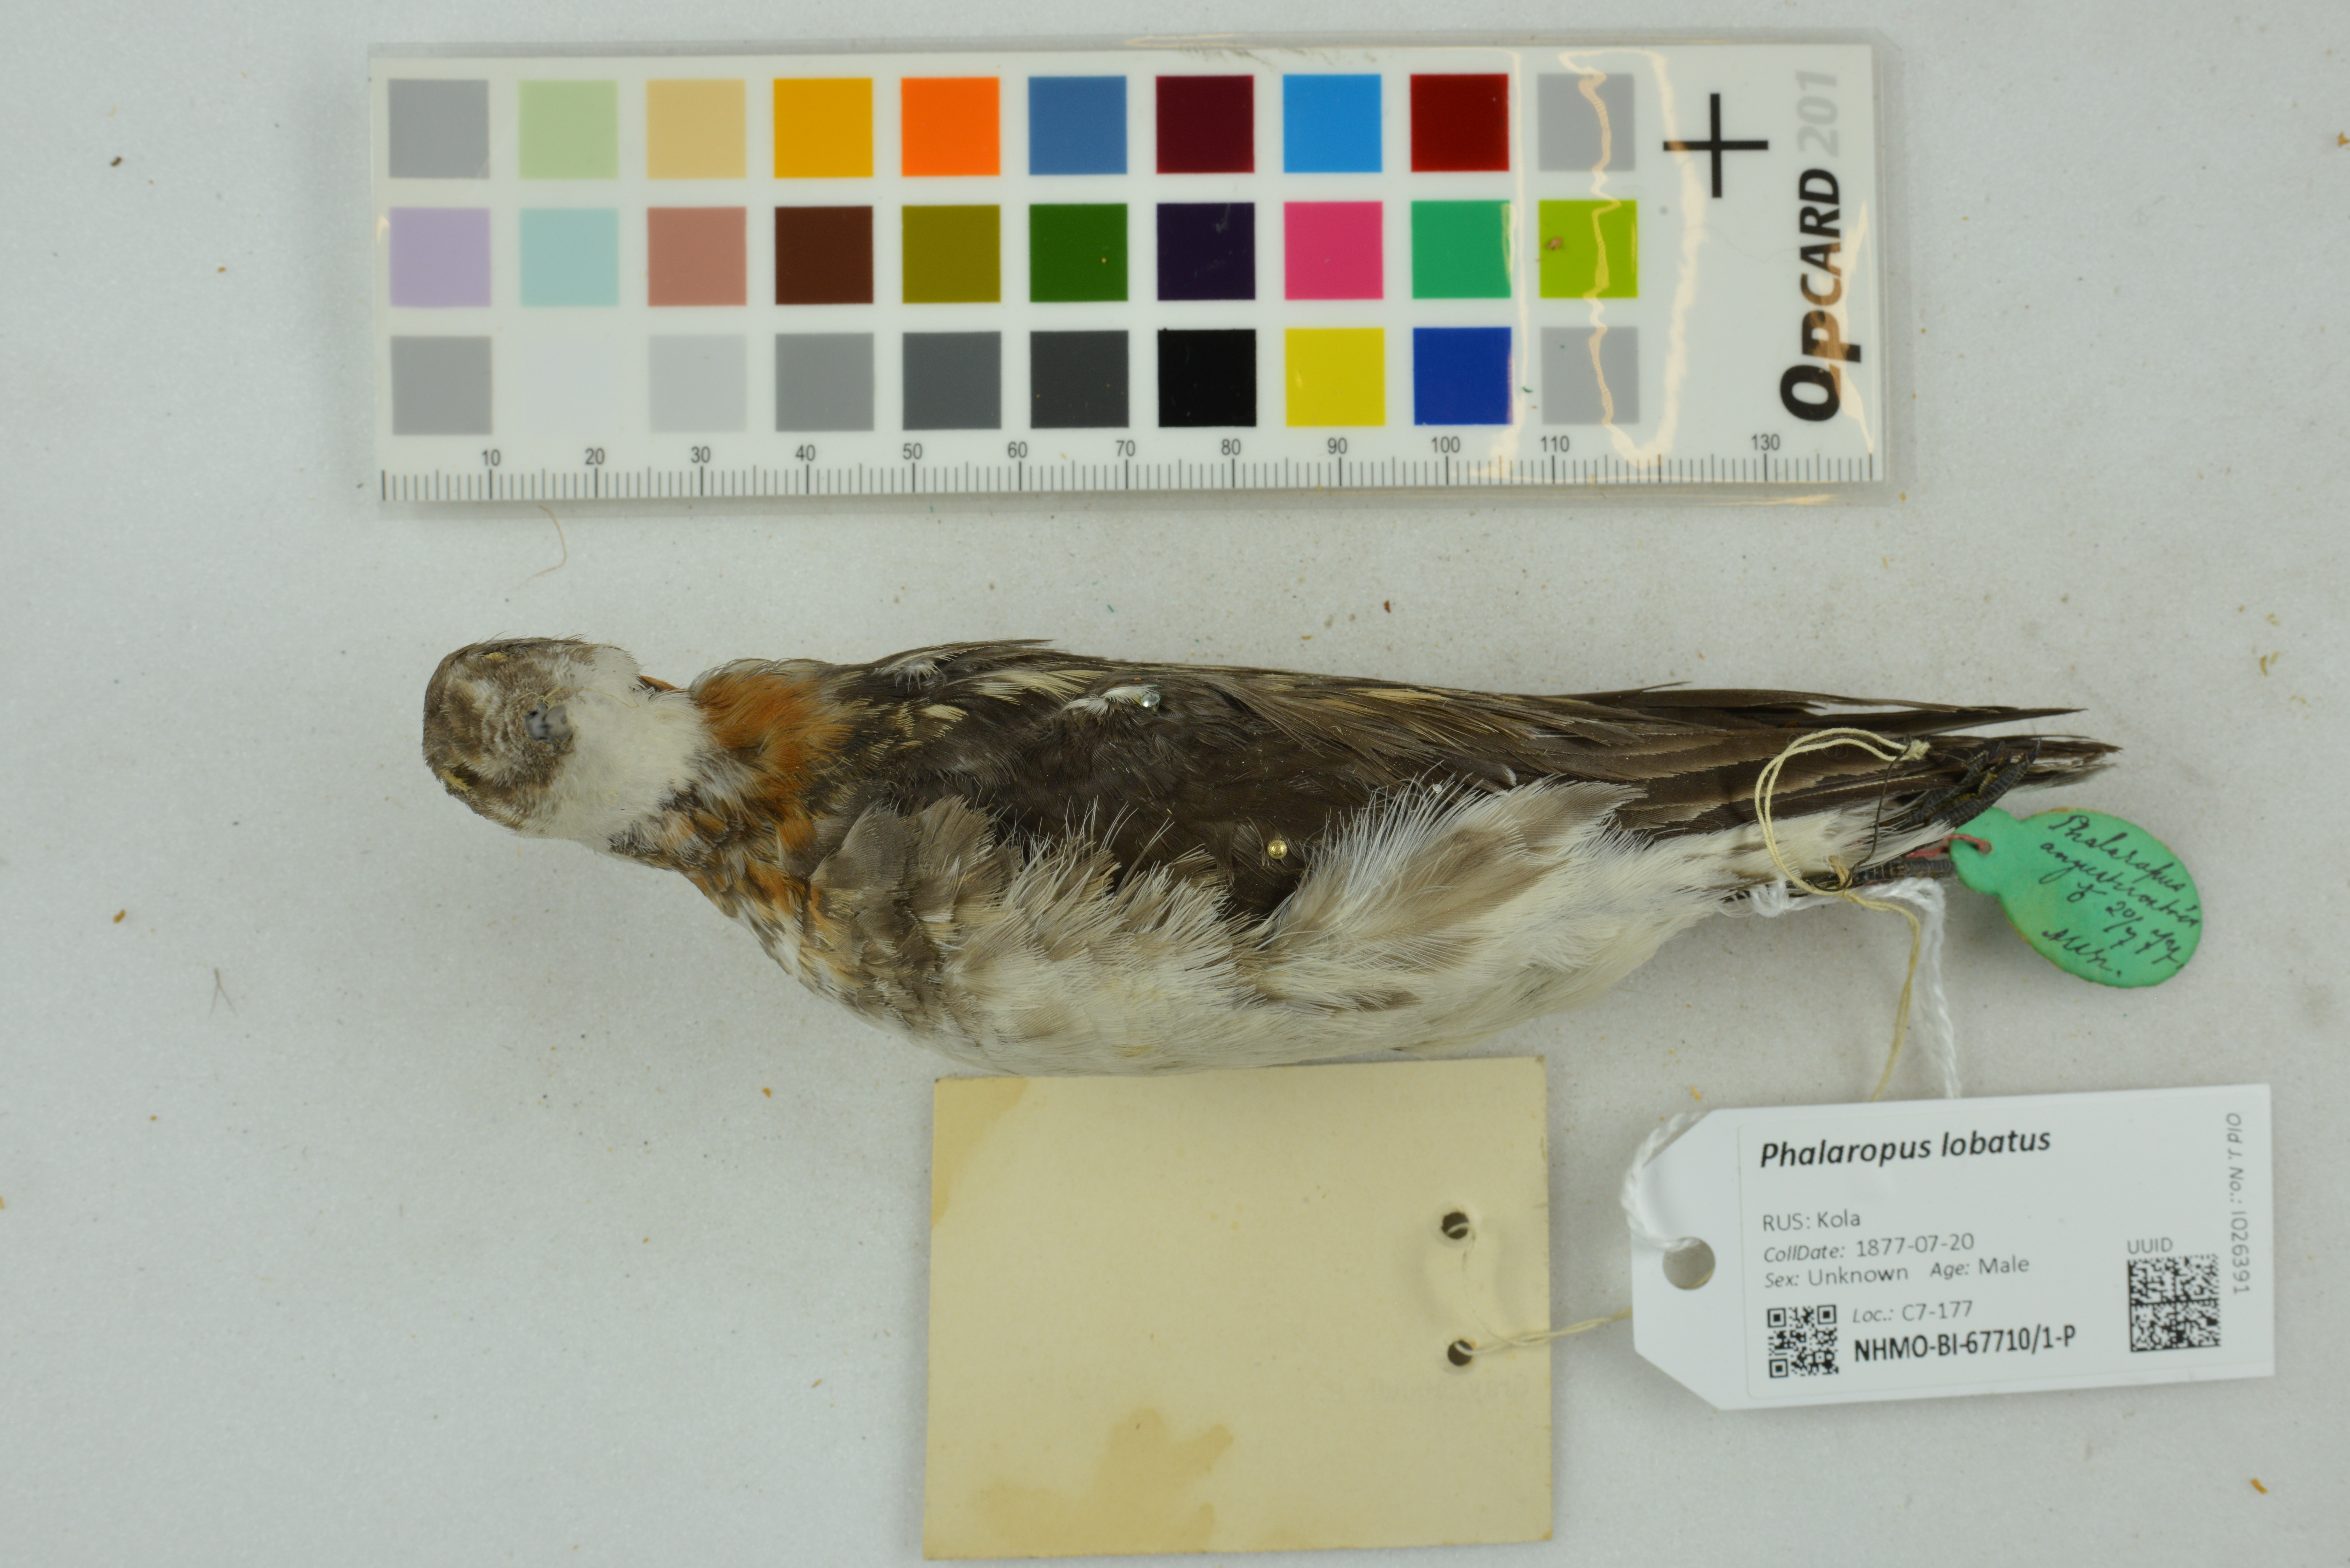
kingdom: Animalia
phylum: Chordata
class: Aves
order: Charadriiformes
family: Scolopacidae
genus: Phalaropus
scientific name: Phalaropus lobatus
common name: Red-necked phalarope
